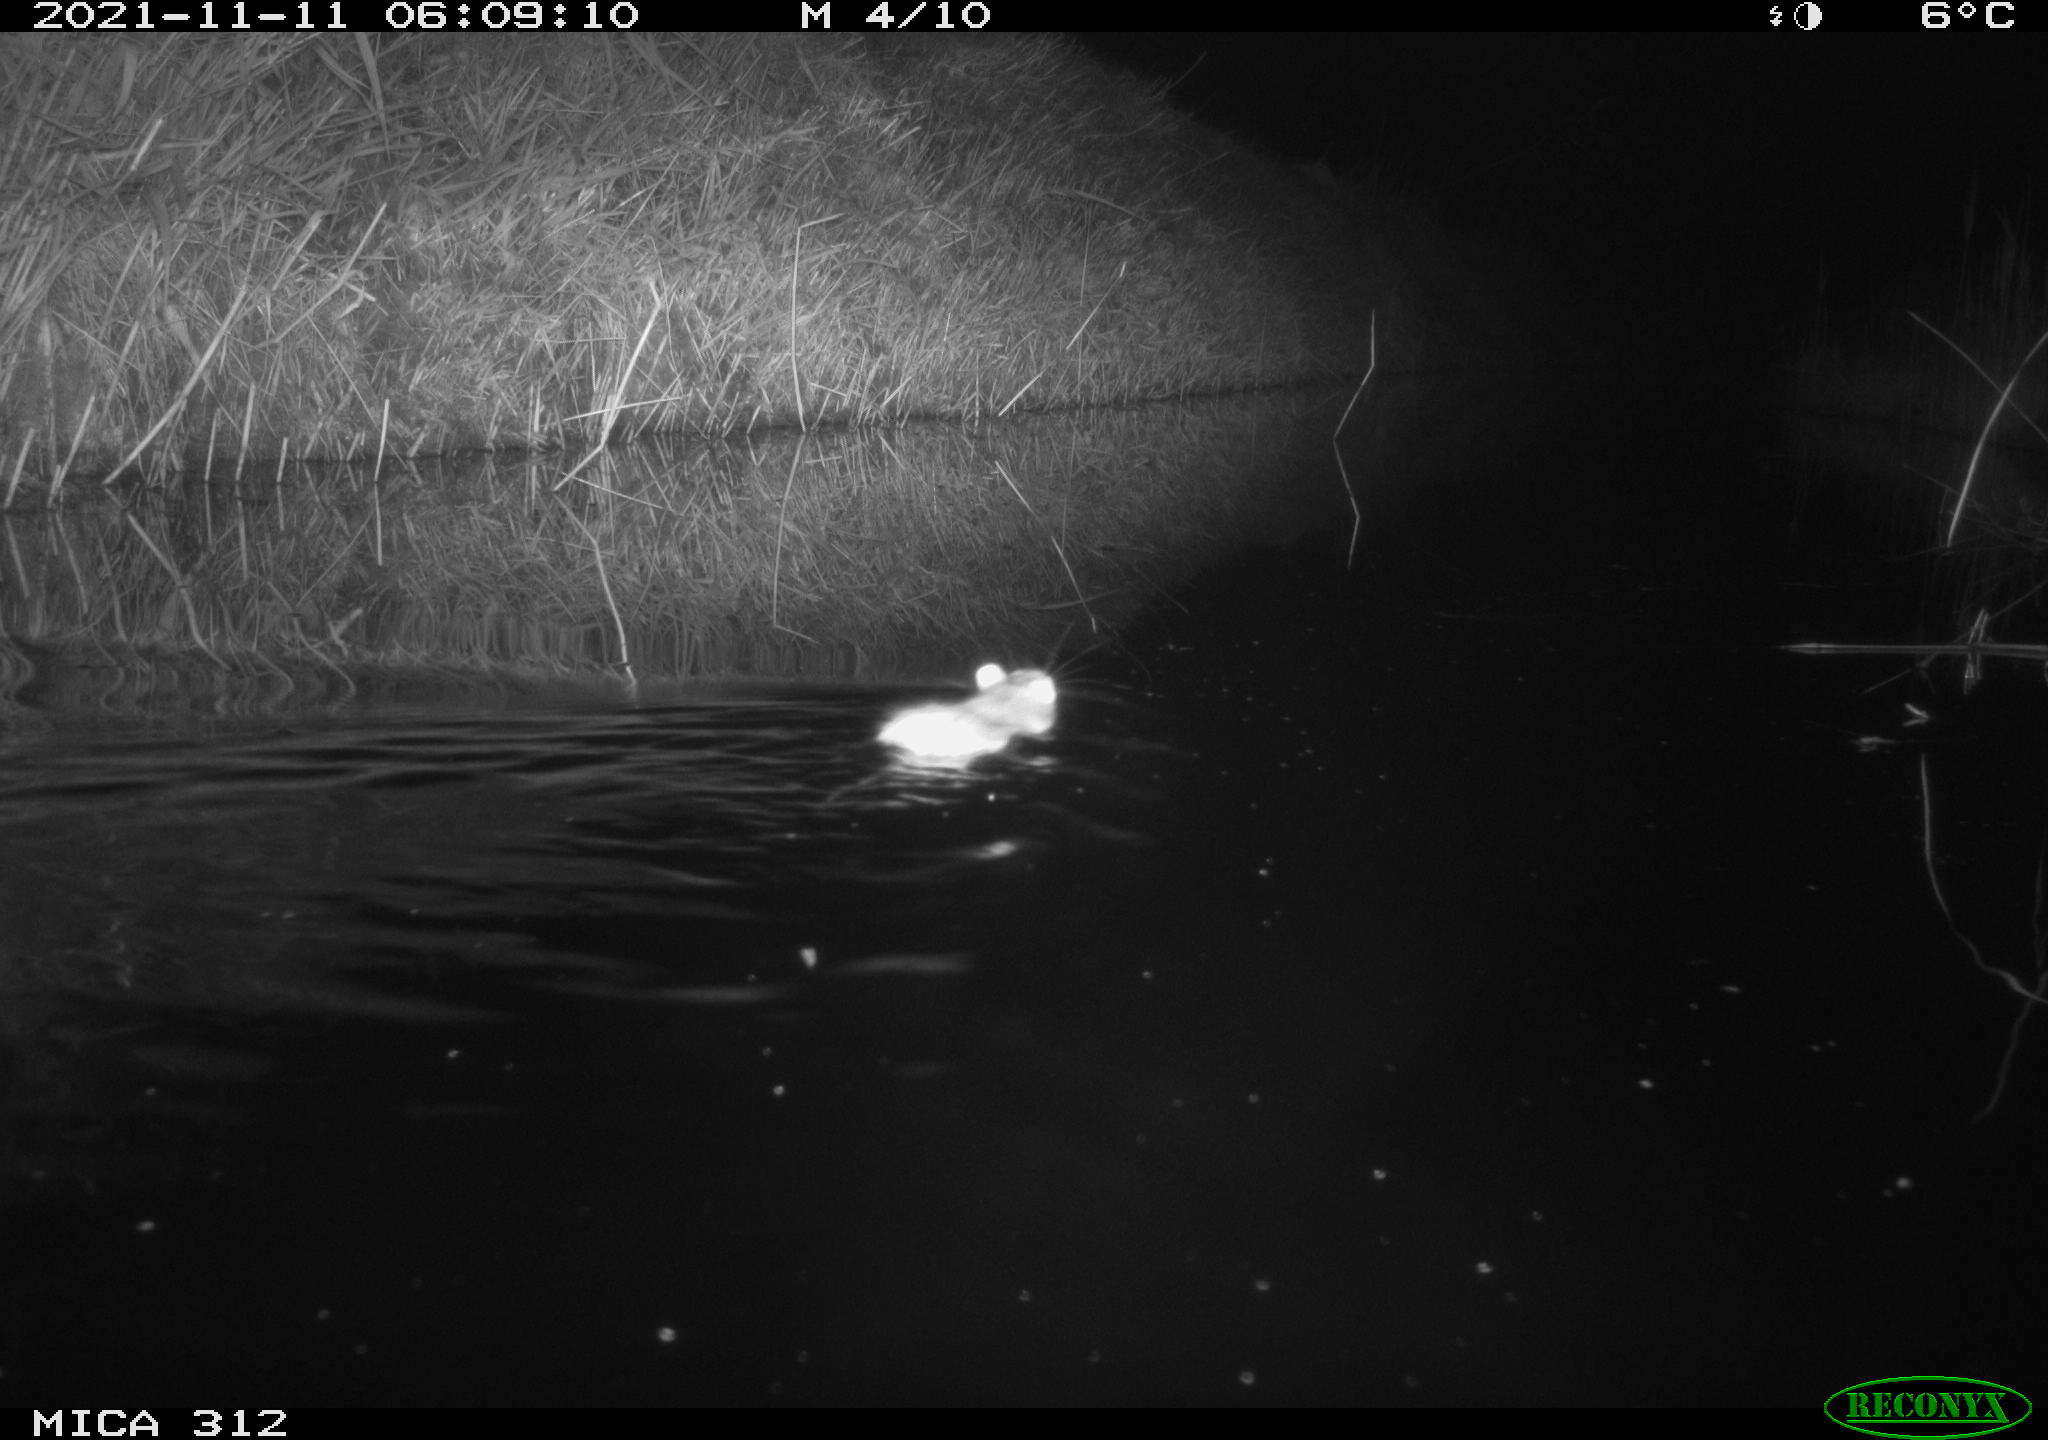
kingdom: Animalia
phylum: Chordata
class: Mammalia
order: Rodentia
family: Muridae
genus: Rattus
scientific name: Rattus norvegicus
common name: Brown rat
